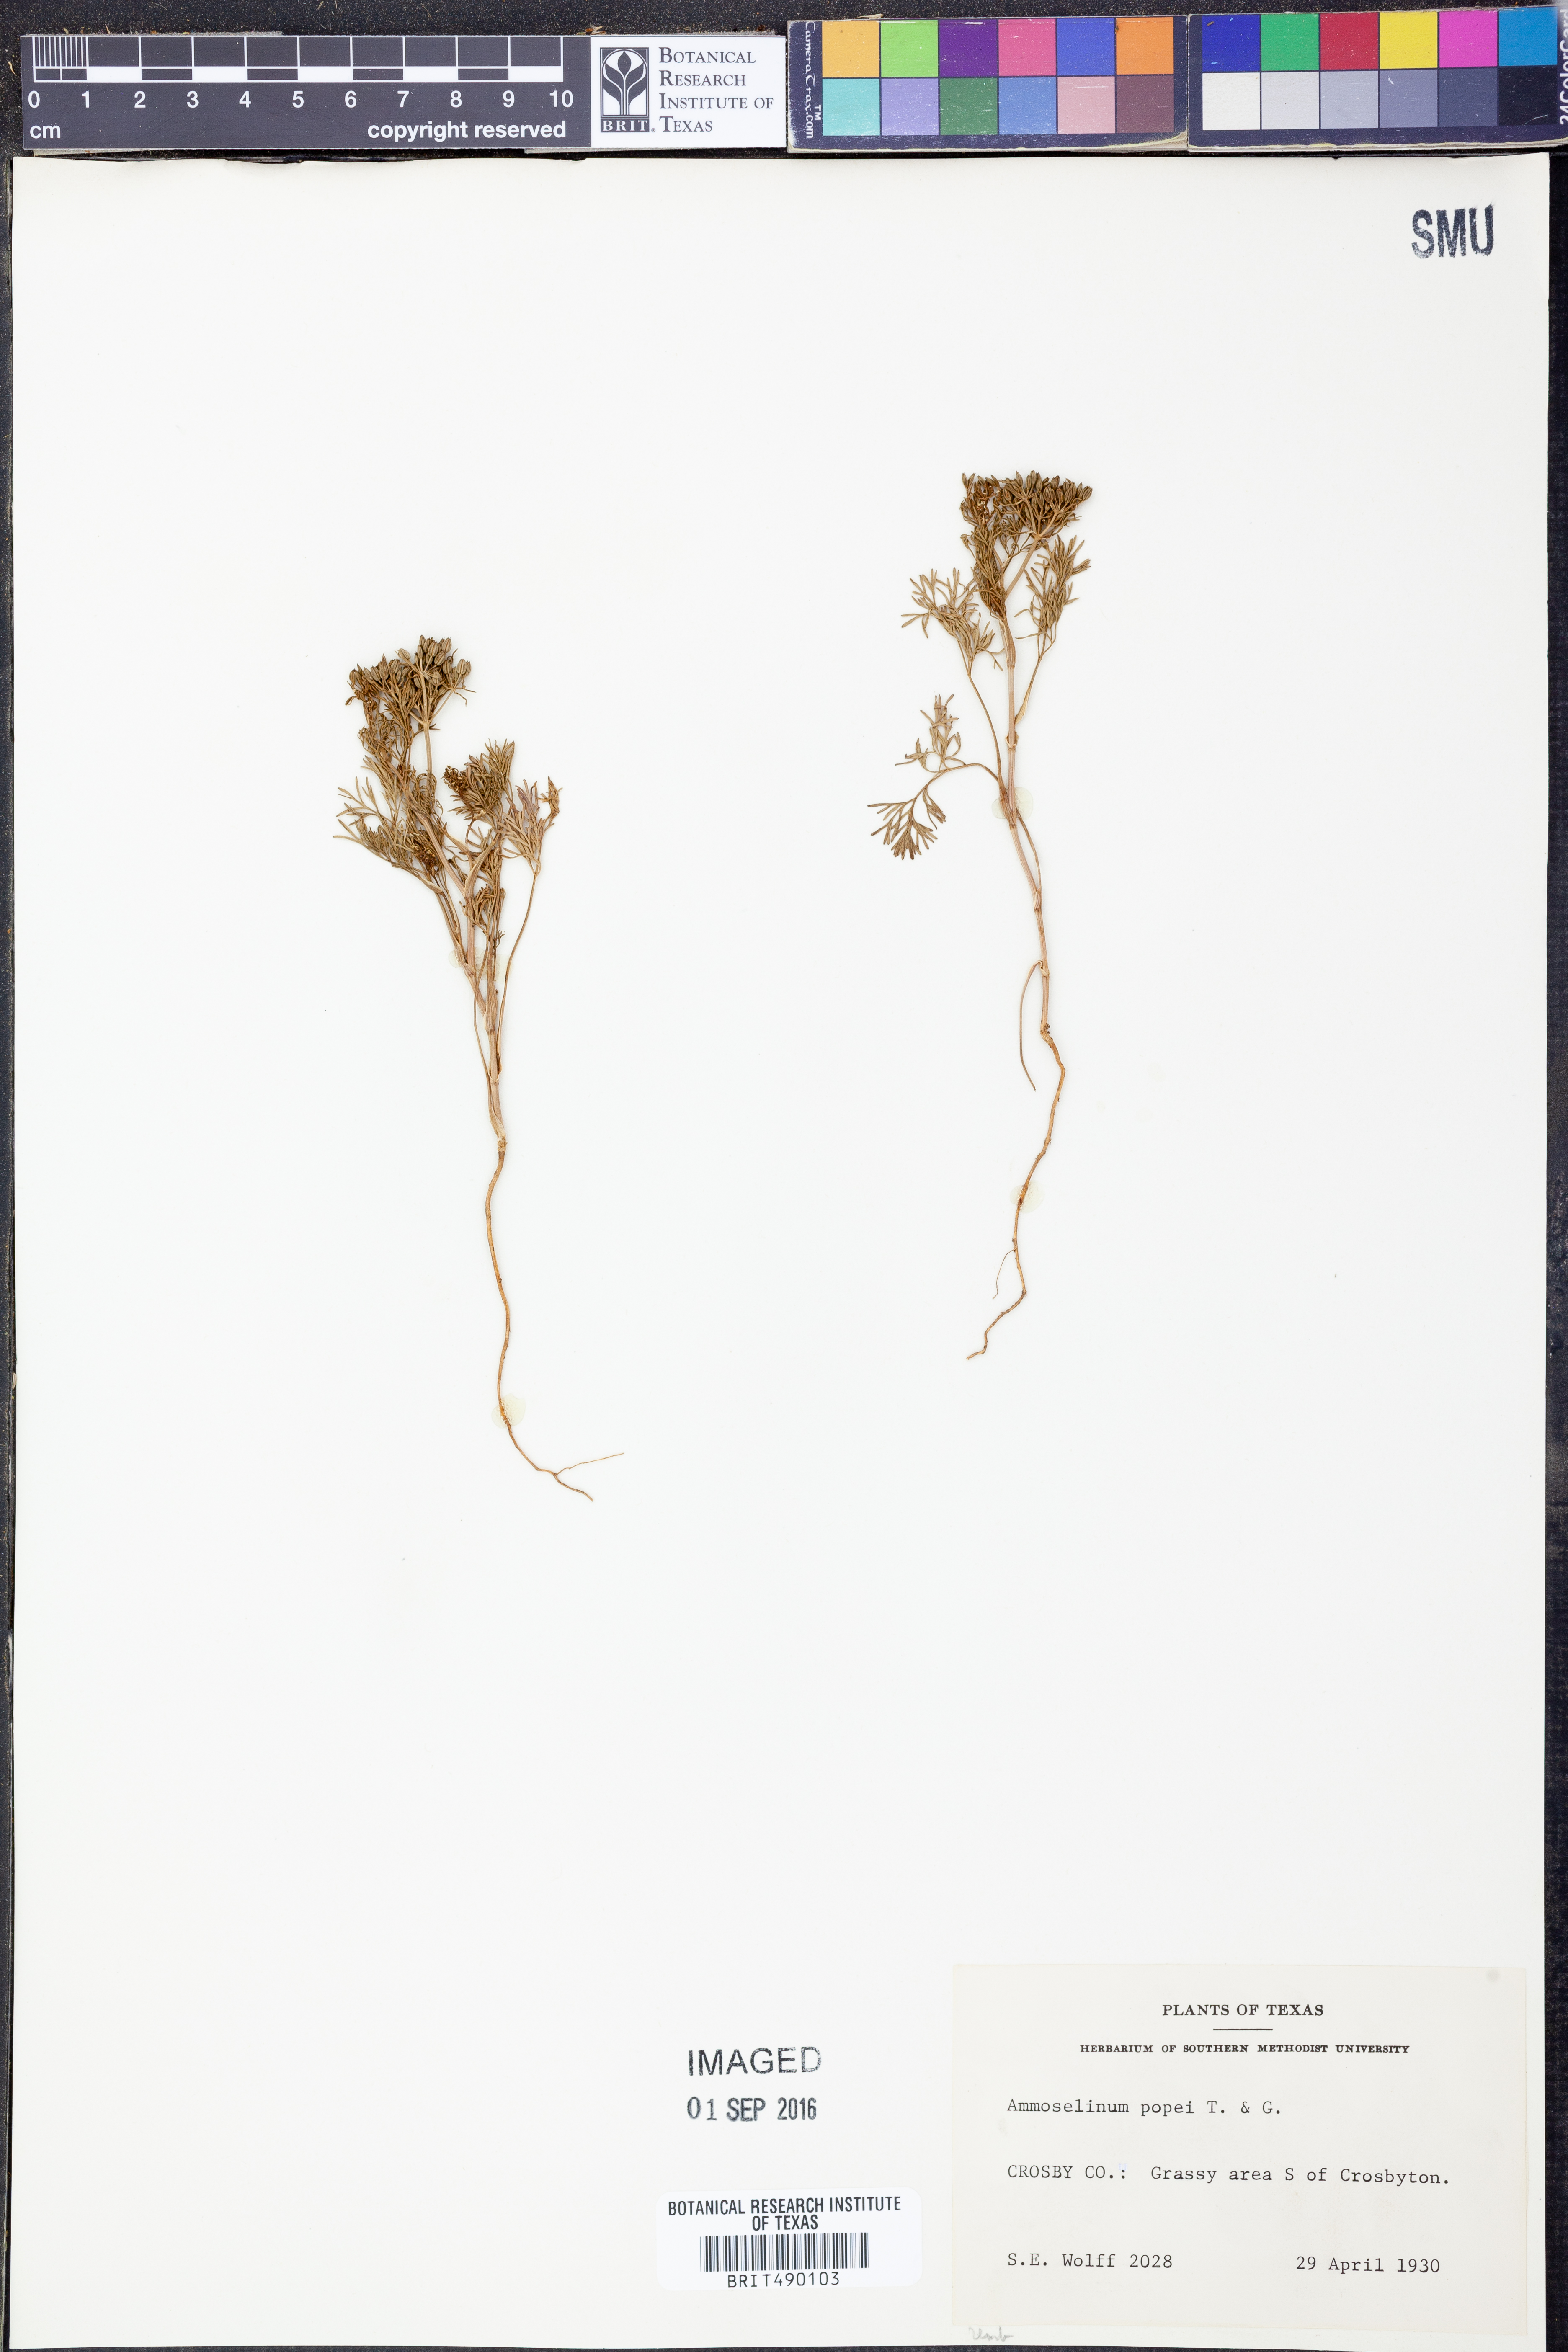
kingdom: Plantae
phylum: Tracheophyta
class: Magnoliopsida
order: Apiales
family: Apiaceae
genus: Ammoselinum
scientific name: Ammoselinum popei
